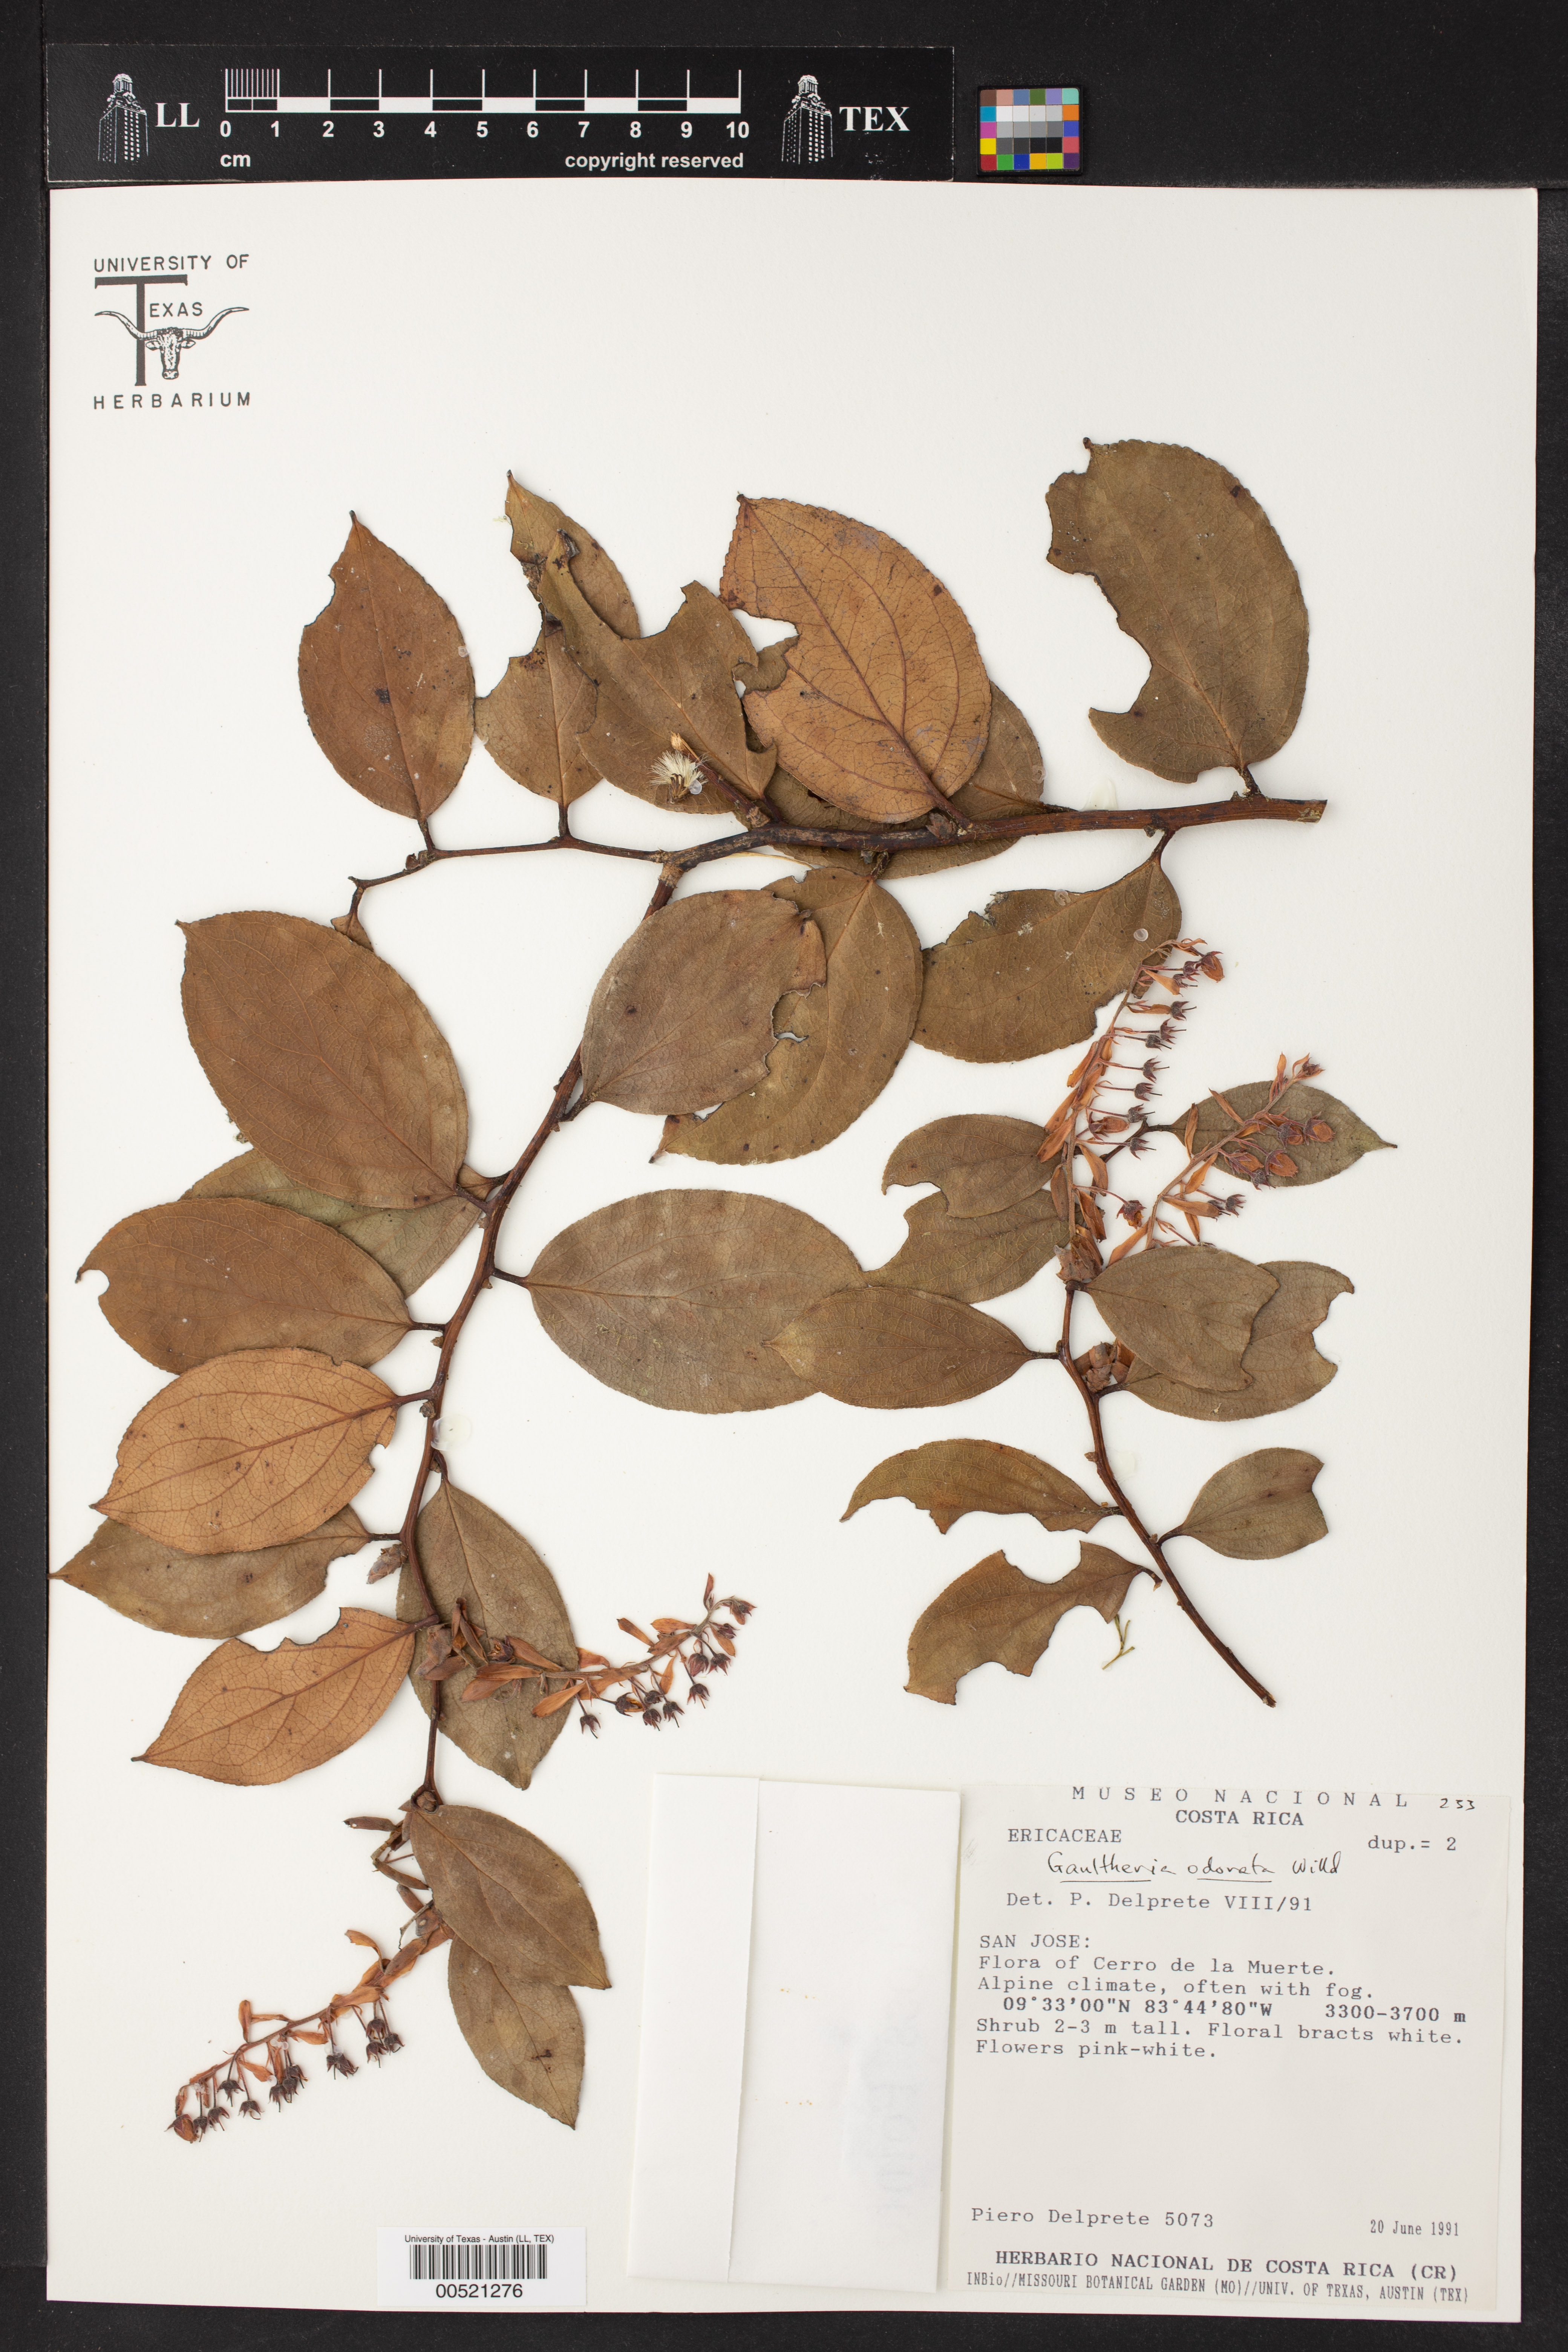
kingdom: Plantae
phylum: Tracheophyta
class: Magnoliopsida
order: Ericales
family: Ericaceae
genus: Gaultheria
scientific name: Gaultheria odorata
